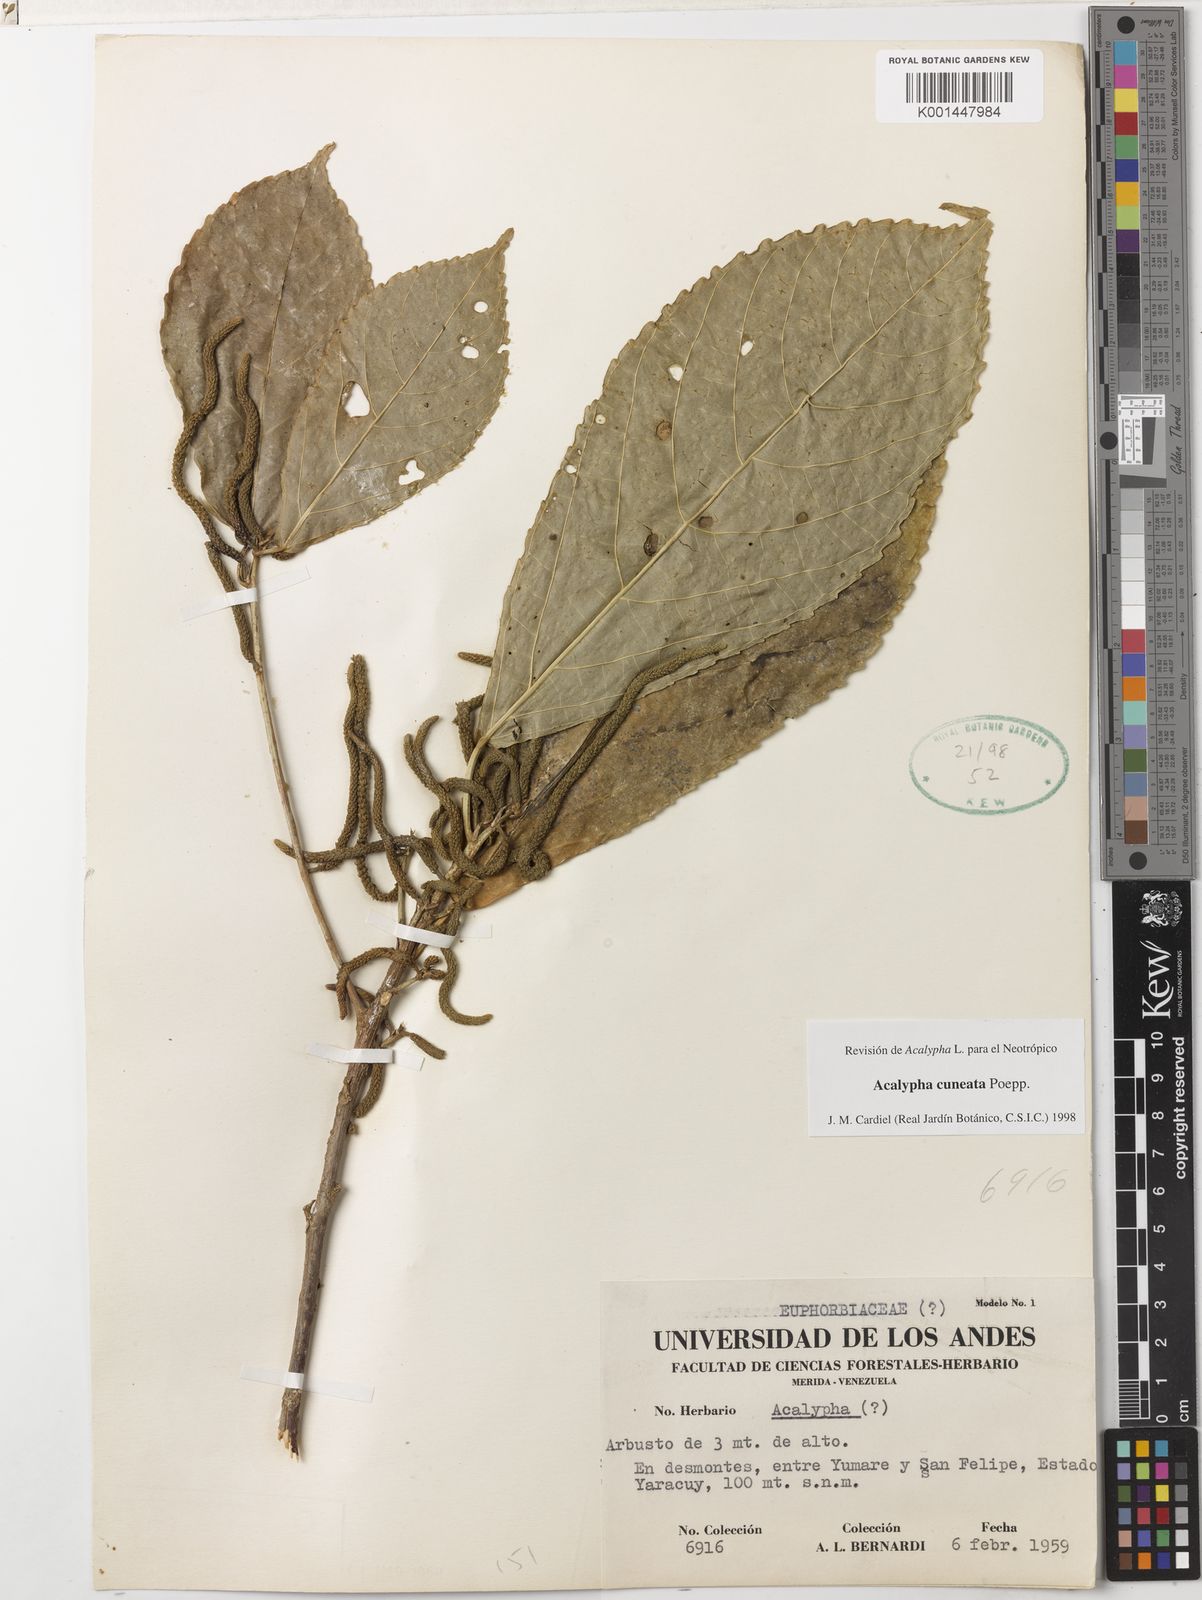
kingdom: Plantae
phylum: Tracheophyta
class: Magnoliopsida
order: Malpighiales
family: Euphorbiaceae
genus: Acalypha
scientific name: Acalypha cuneata
